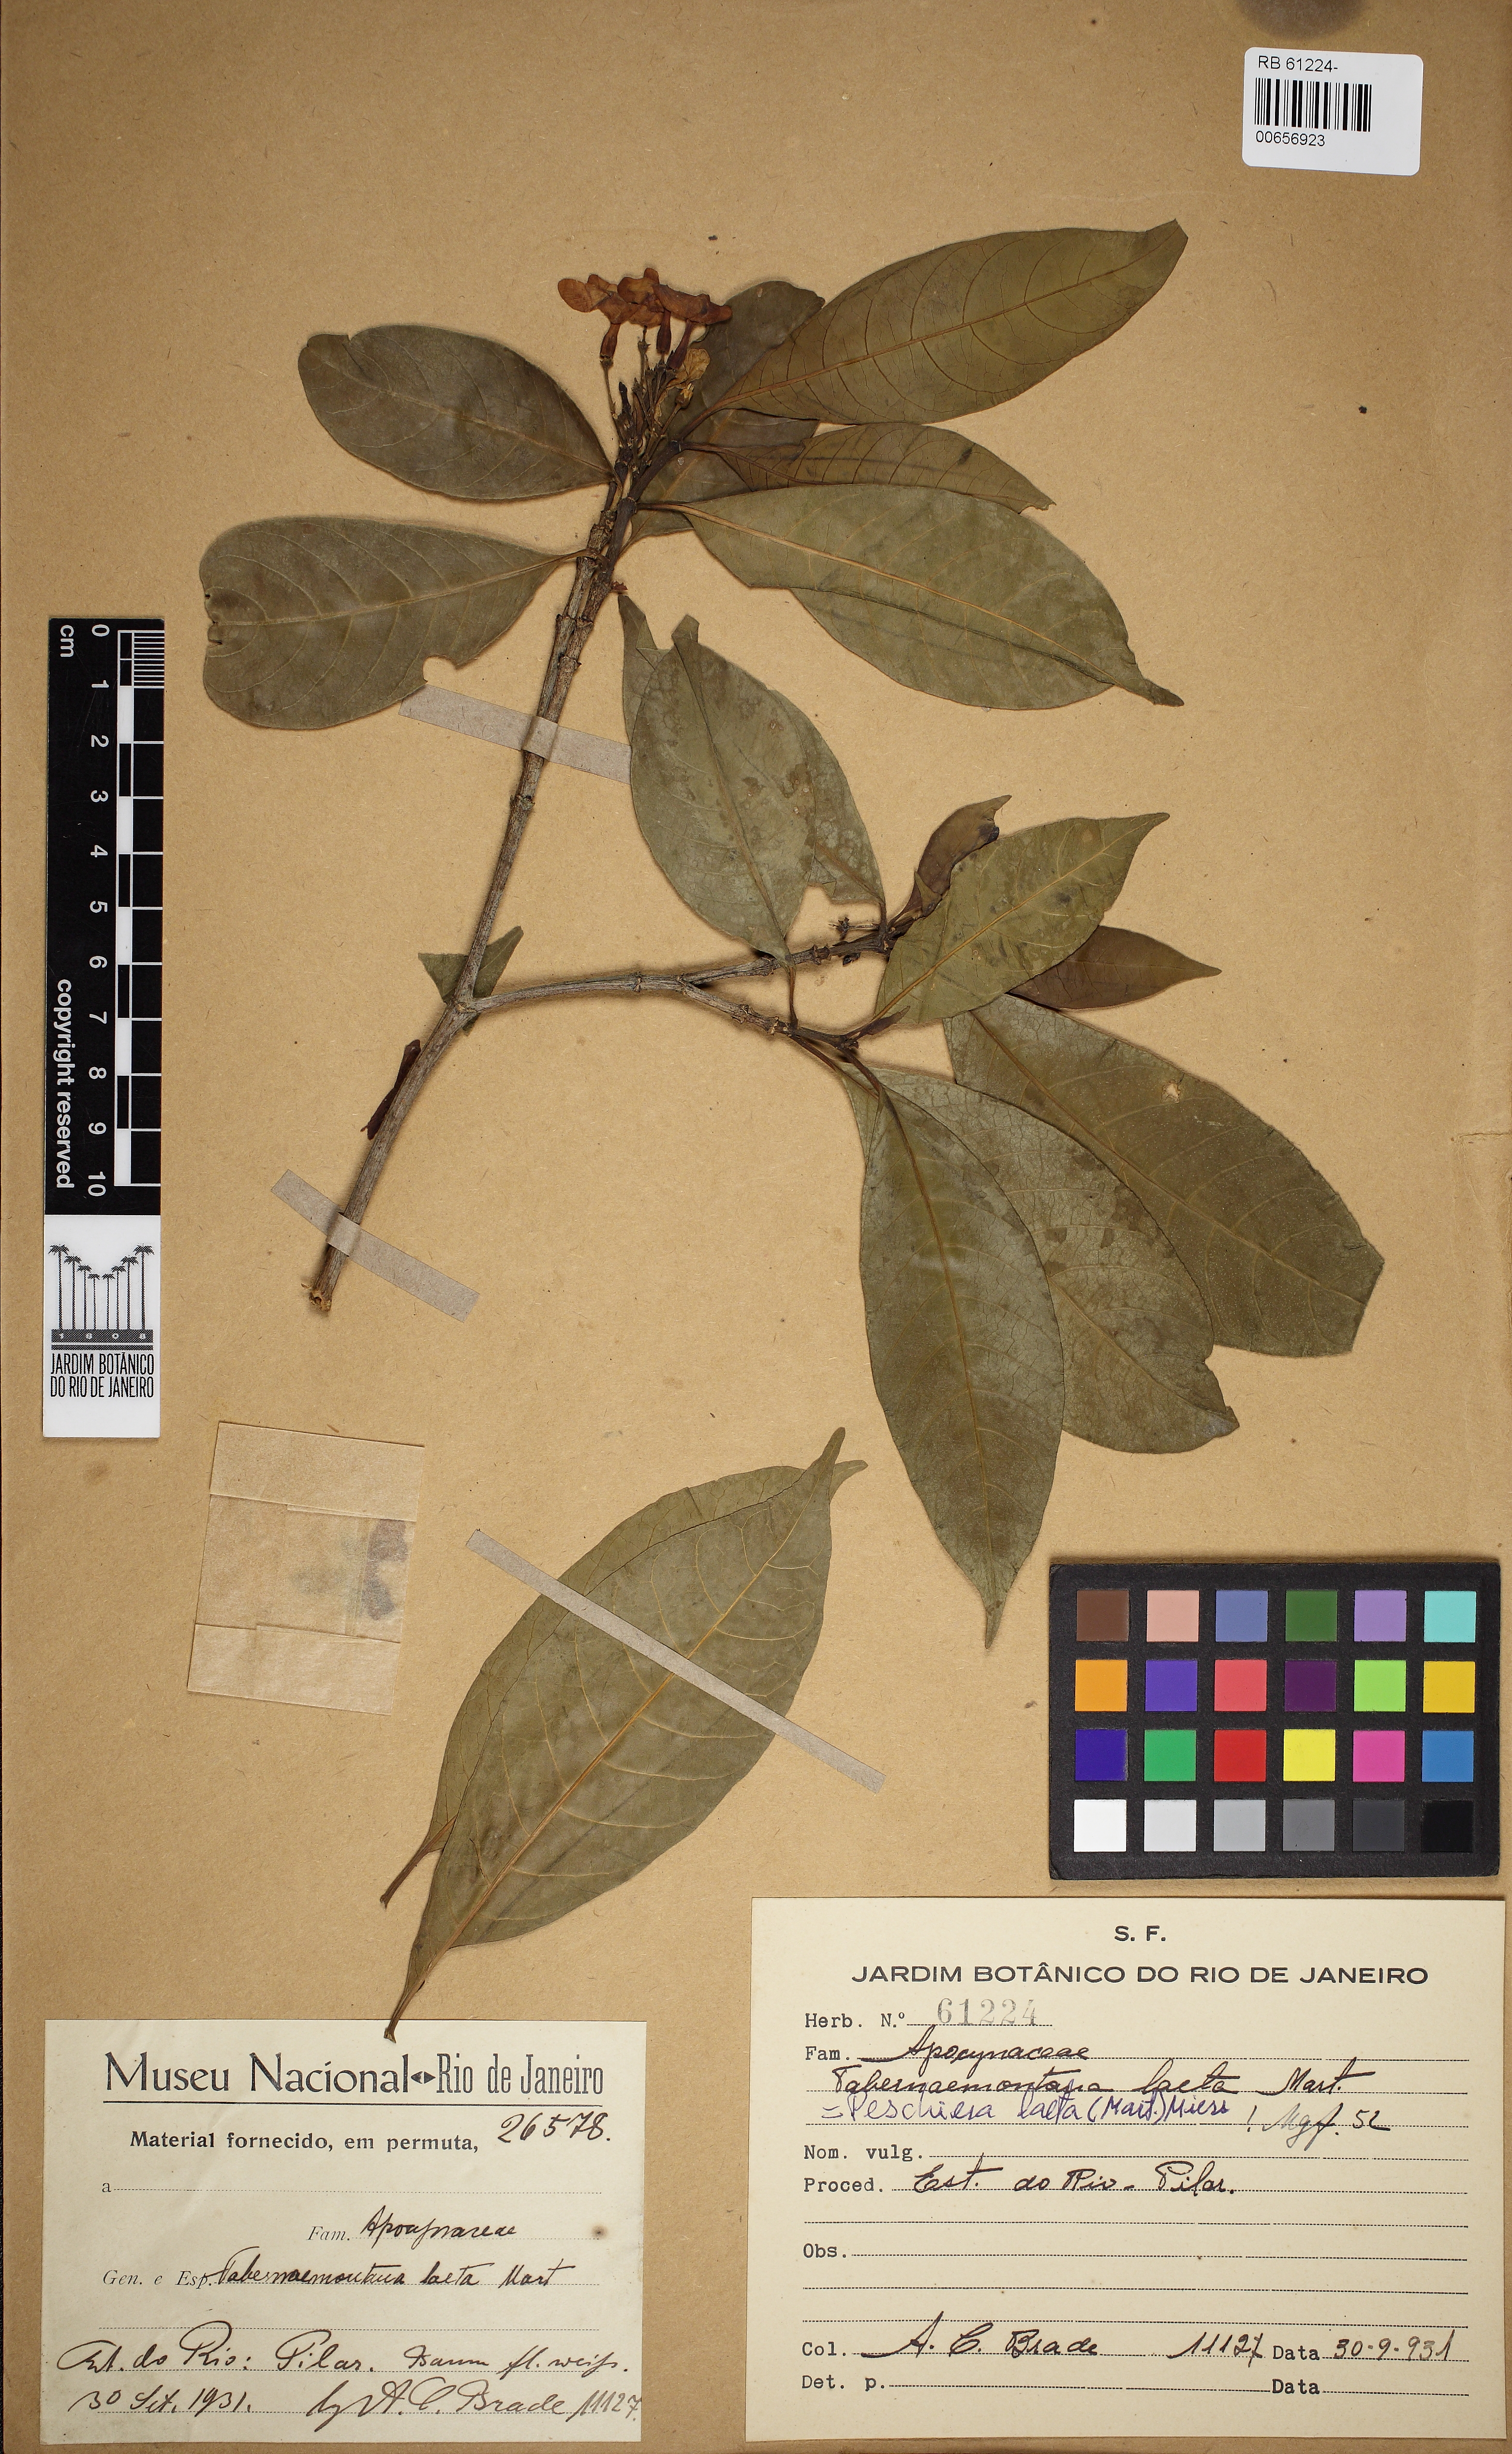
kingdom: Plantae
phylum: Tracheophyta
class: Magnoliopsida
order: Gentianales
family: Apocynaceae
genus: Tabernaemontana
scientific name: Tabernaemontana laeta
